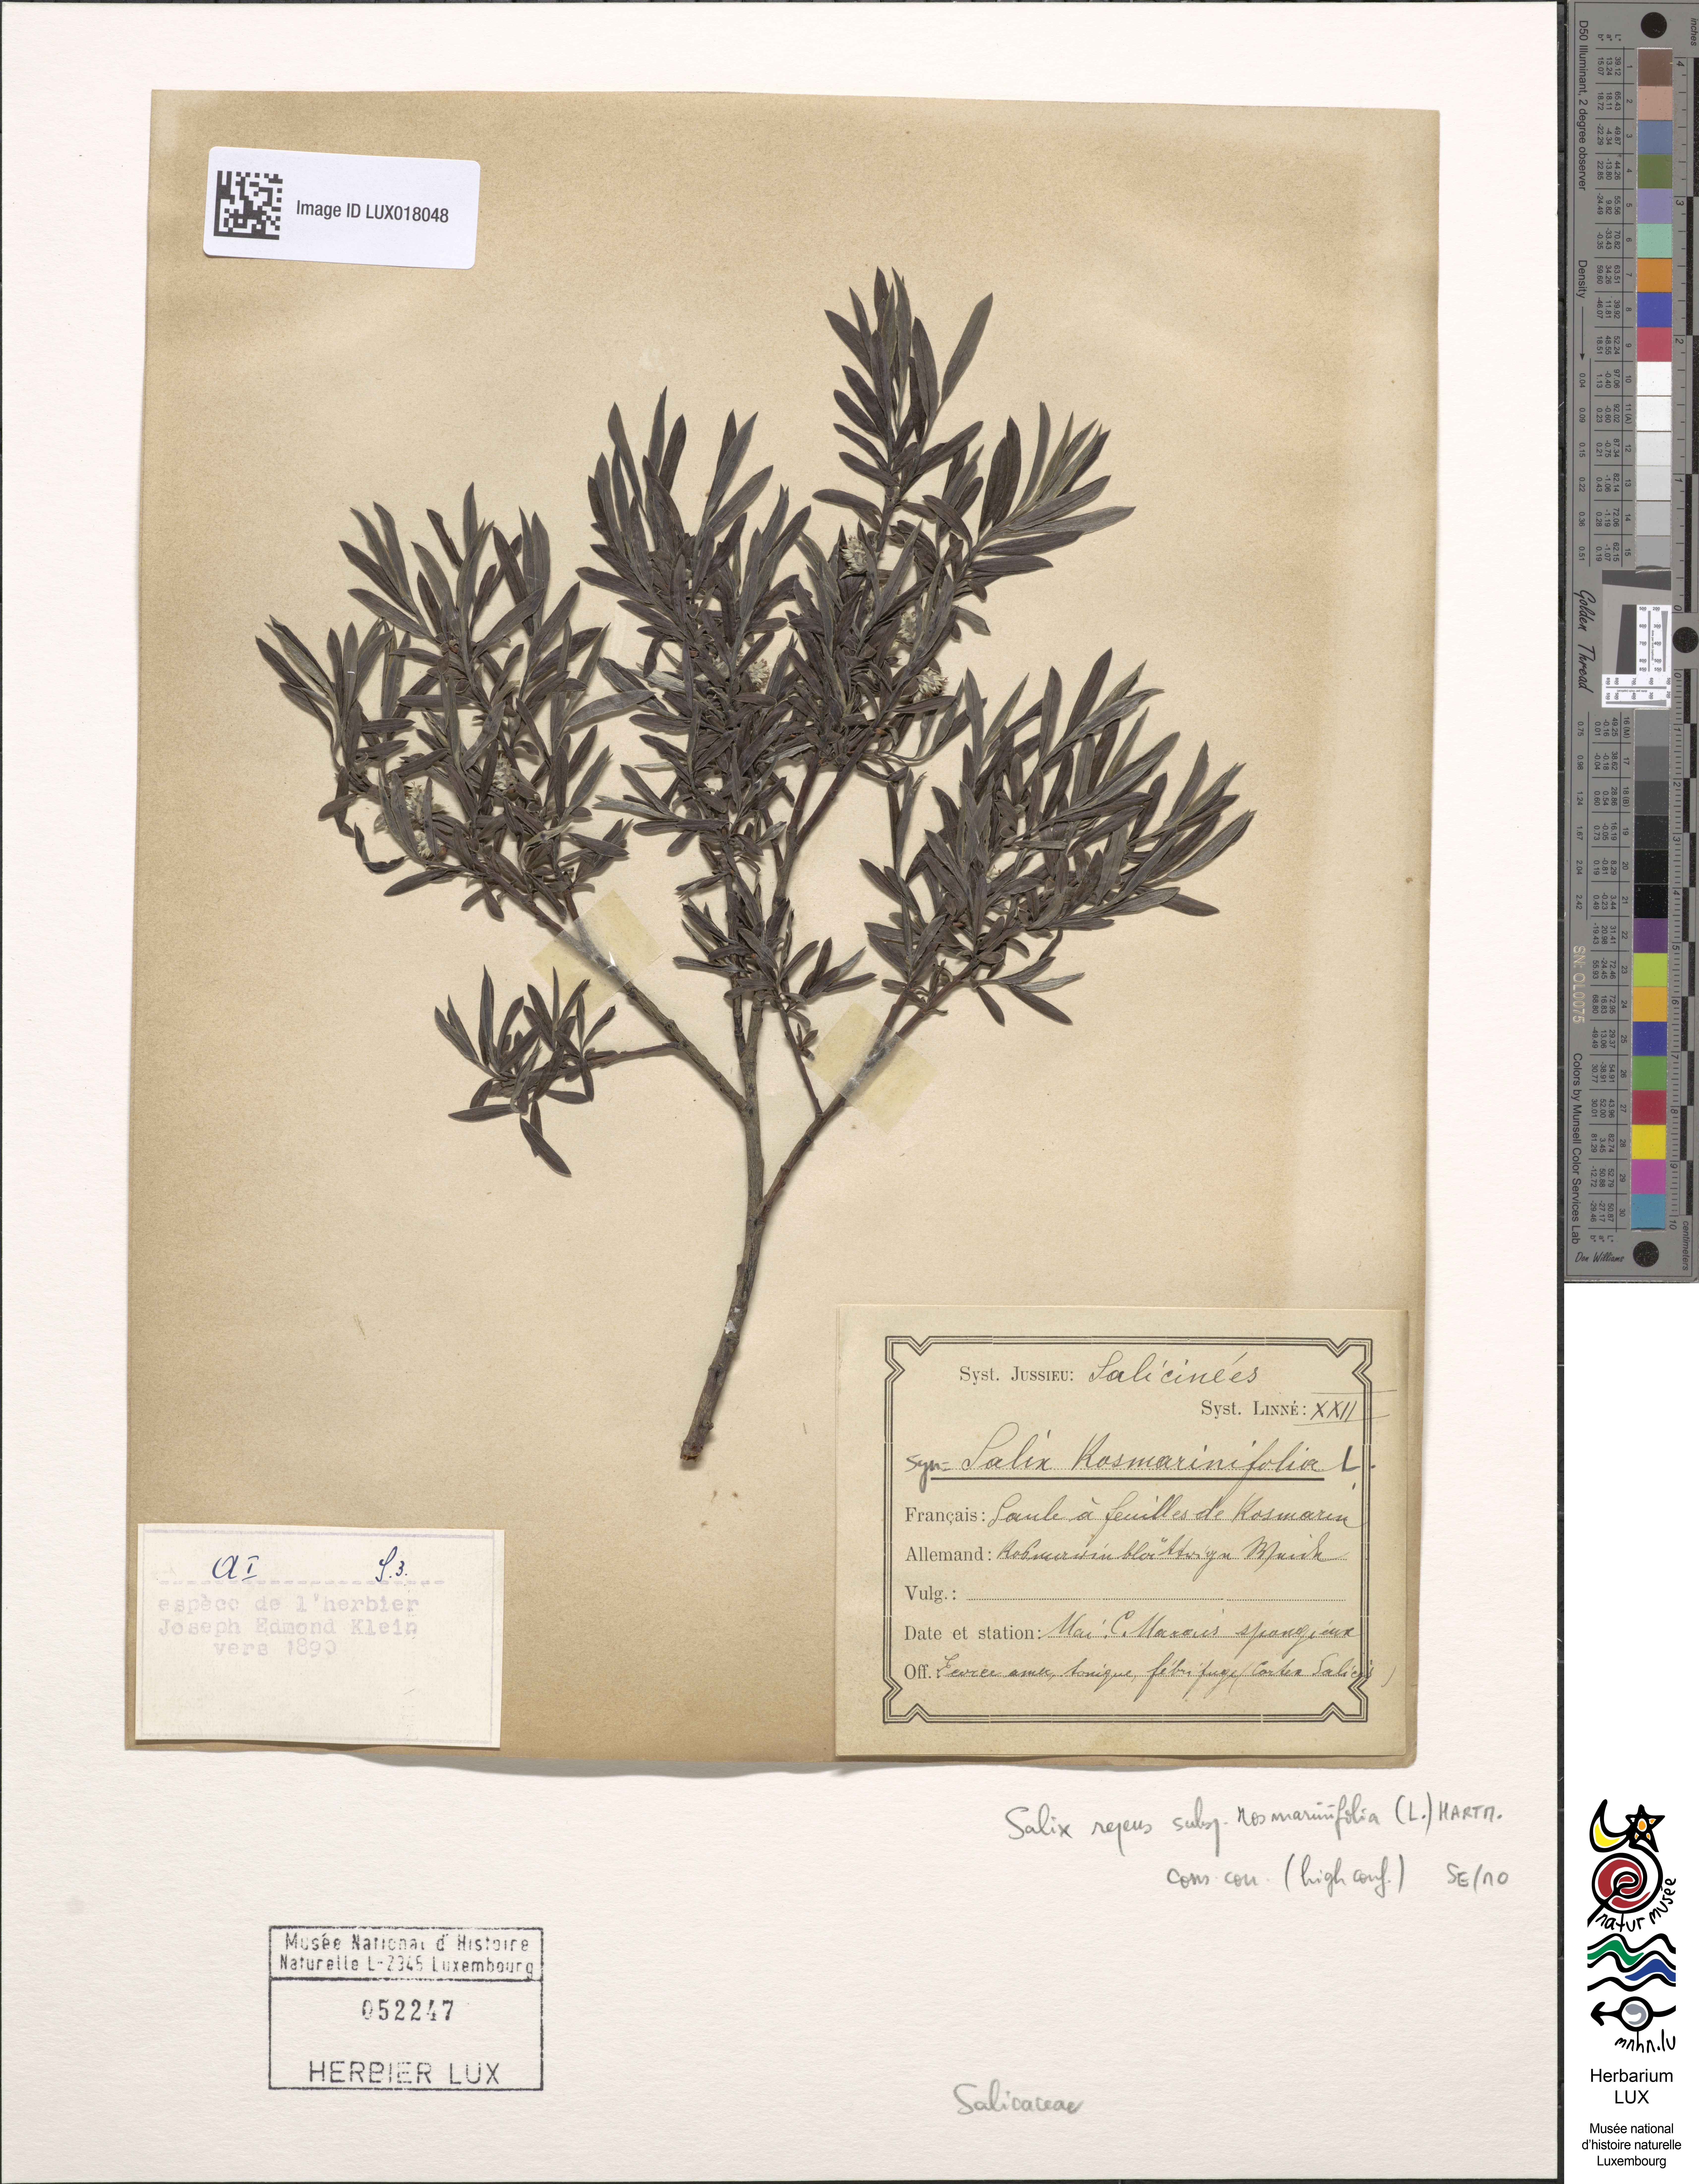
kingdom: Plantae
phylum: Tracheophyta
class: Magnoliopsida
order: Malpighiales
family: Salicaceae
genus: Salix
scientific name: Salix repens
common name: Creeping willow
